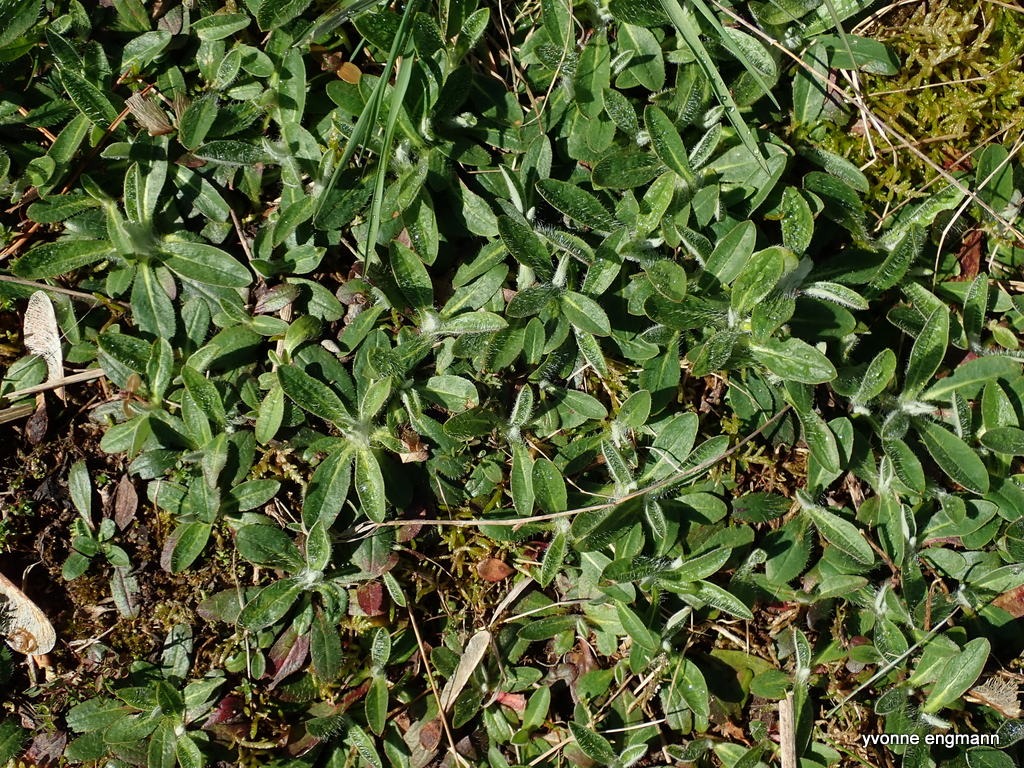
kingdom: Plantae
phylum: Tracheophyta
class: Magnoliopsida
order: Asterales
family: Asteraceae
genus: Pilosella
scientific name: Pilosella officinarum
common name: Håret høgeurt
